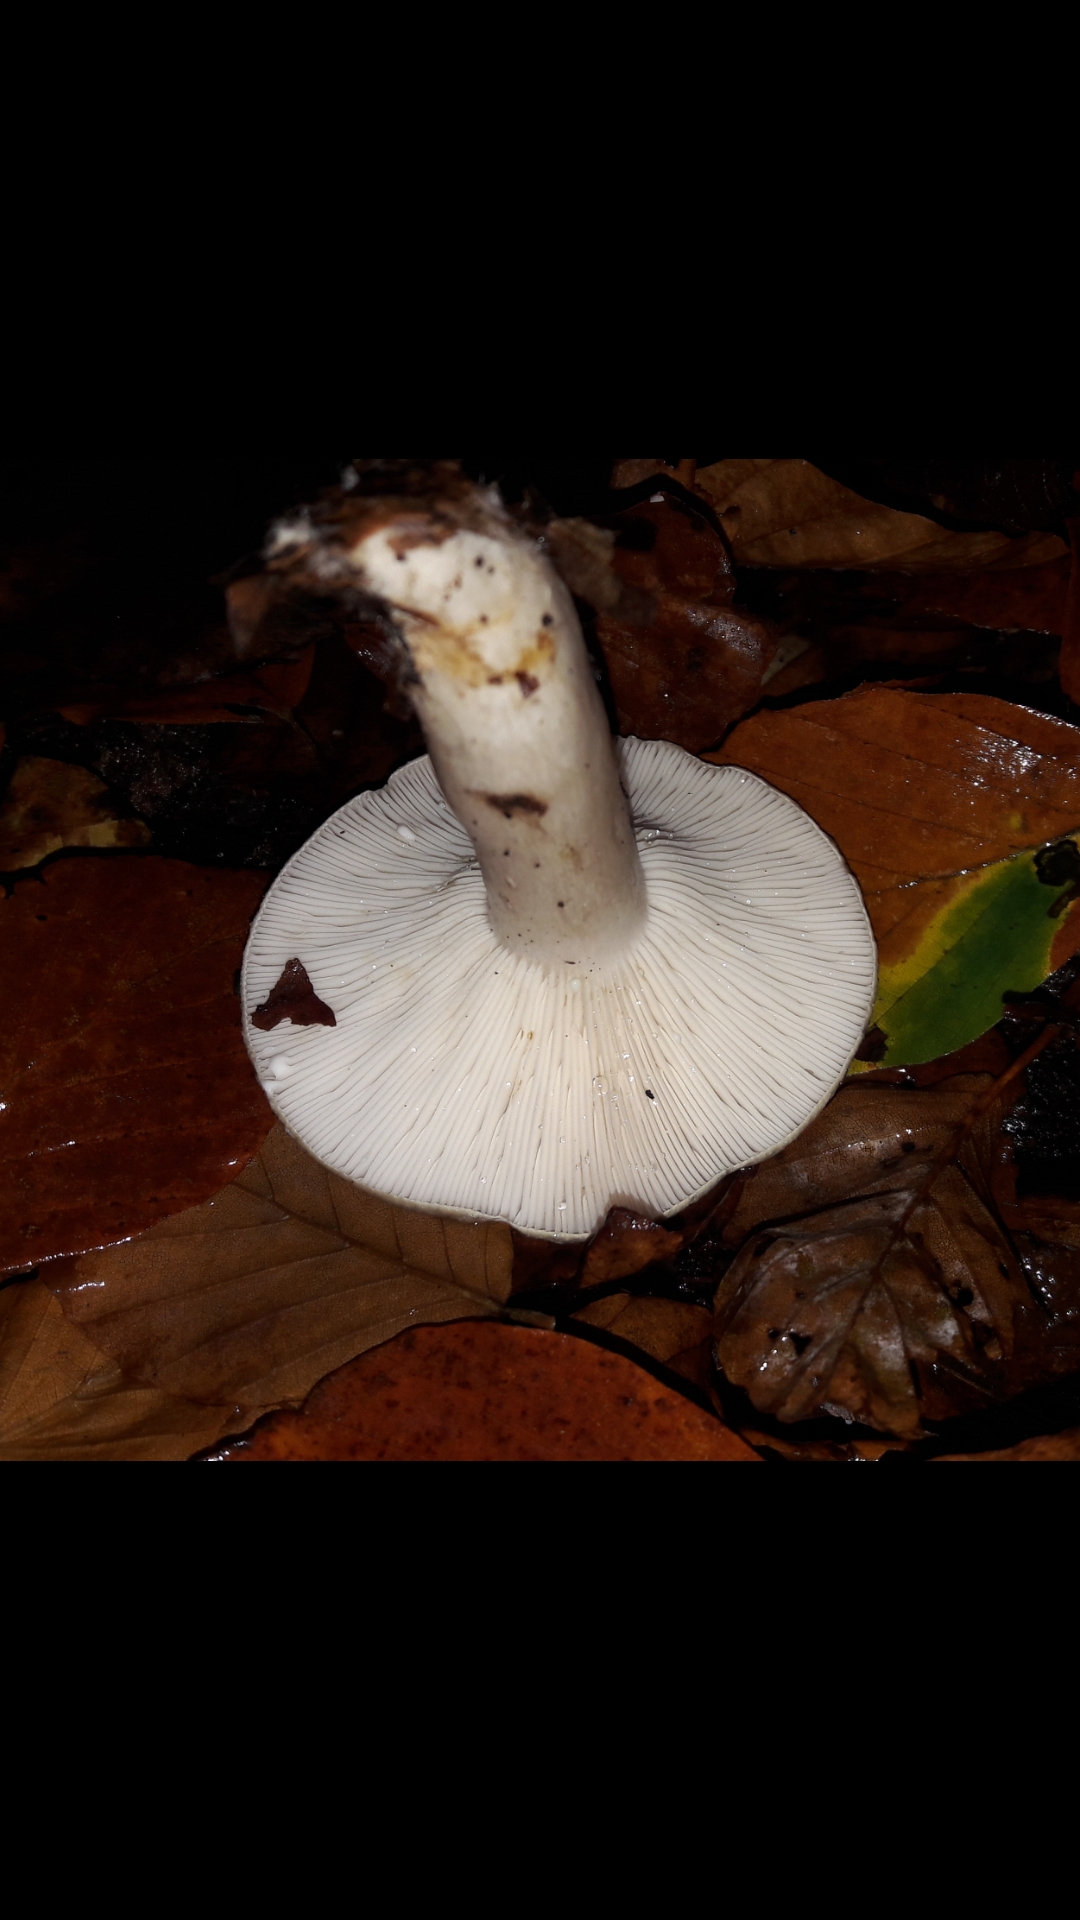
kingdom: Fungi
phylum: Basidiomycota
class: Agaricomycetes
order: Russulales
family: Russulaceae
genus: Lactarius
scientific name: Lactarius blennius
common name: dråbeplettet mælkehat
